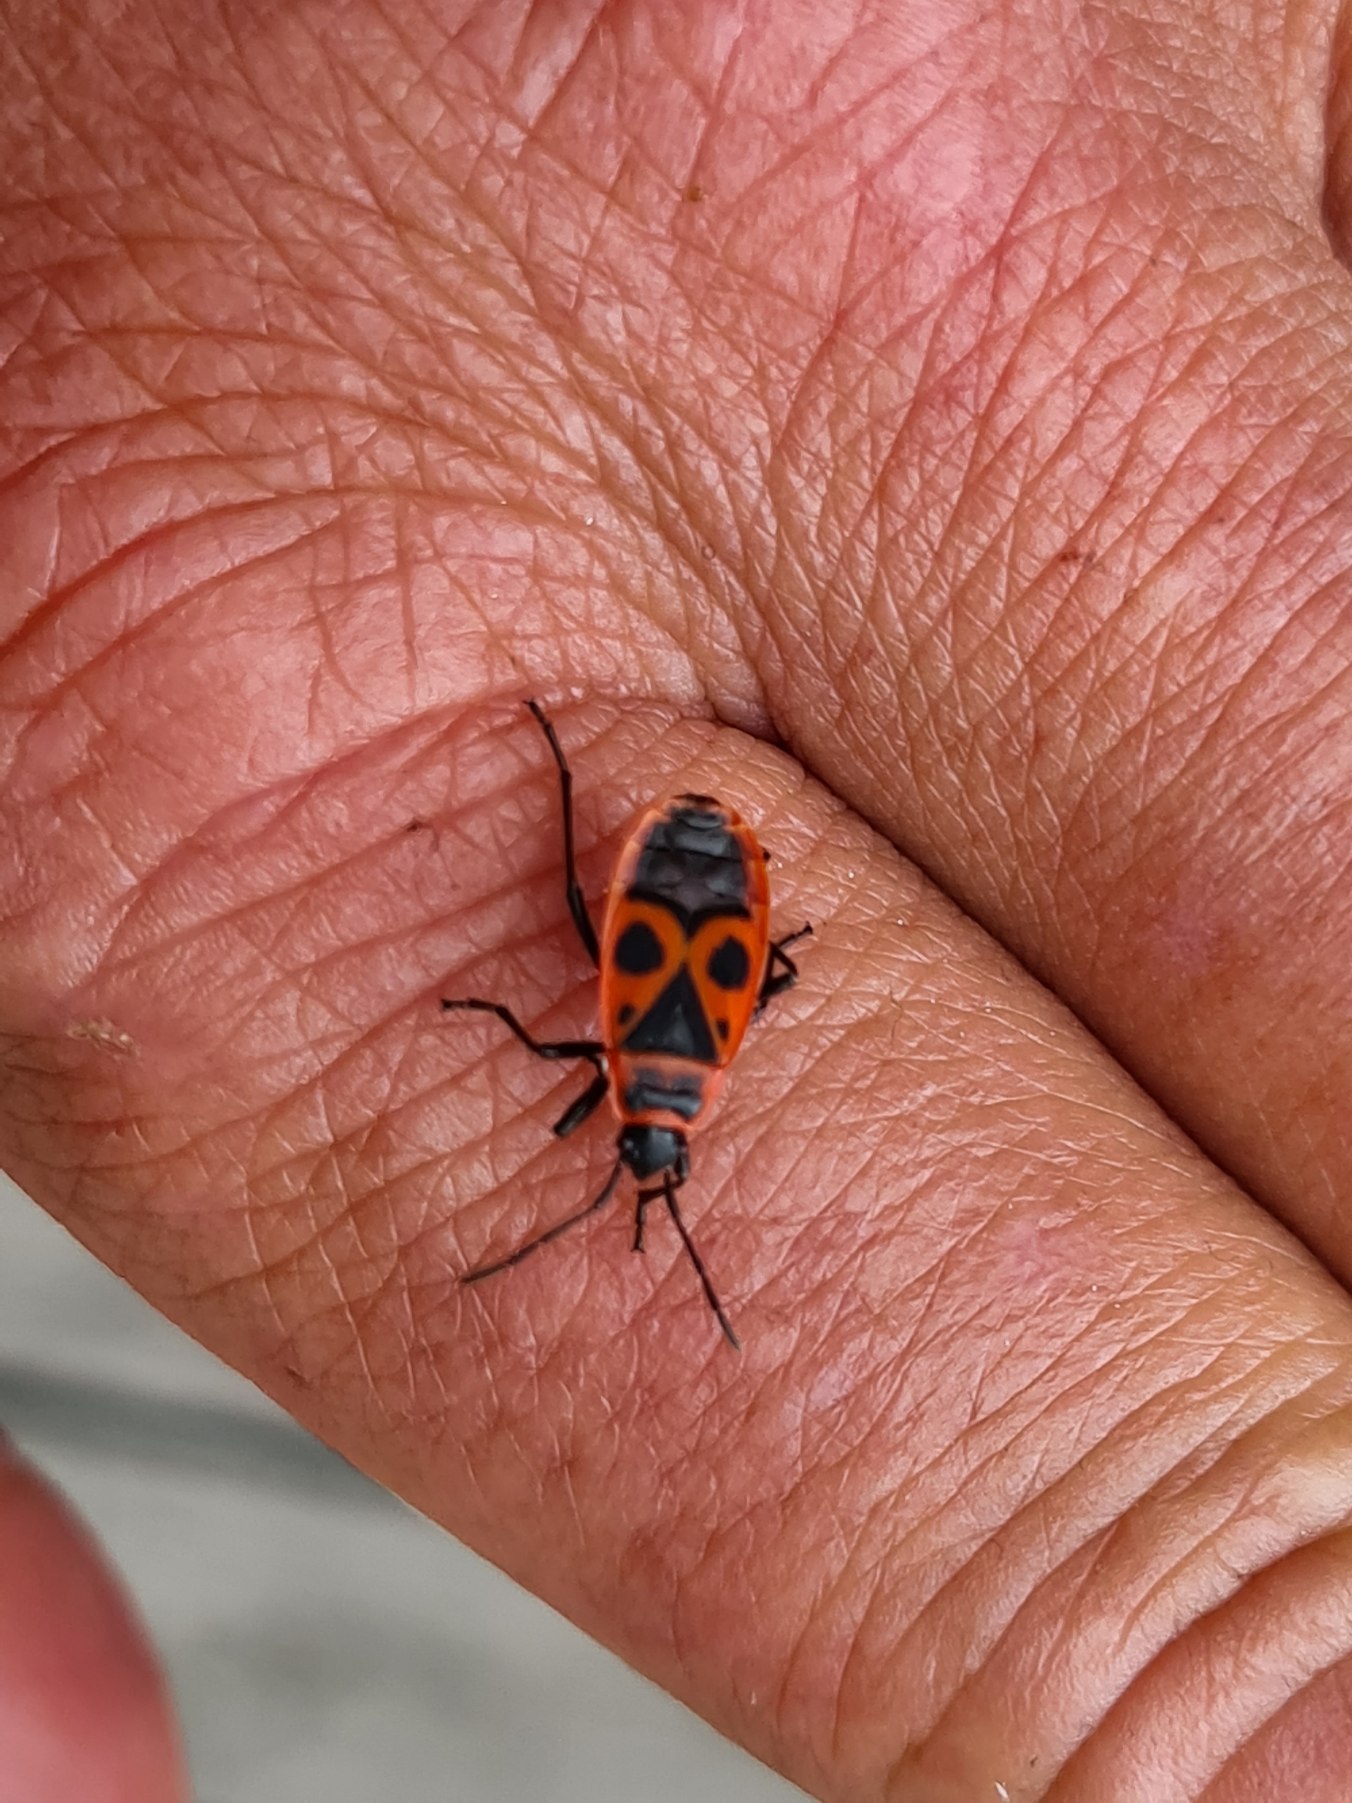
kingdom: Animalia
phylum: Arthropoda
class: Insecta
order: Hemiptera
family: Pyrrhocoridae
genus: Pyrrhocoris
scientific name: Pyrrhocoris apterus
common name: Ildtæge
